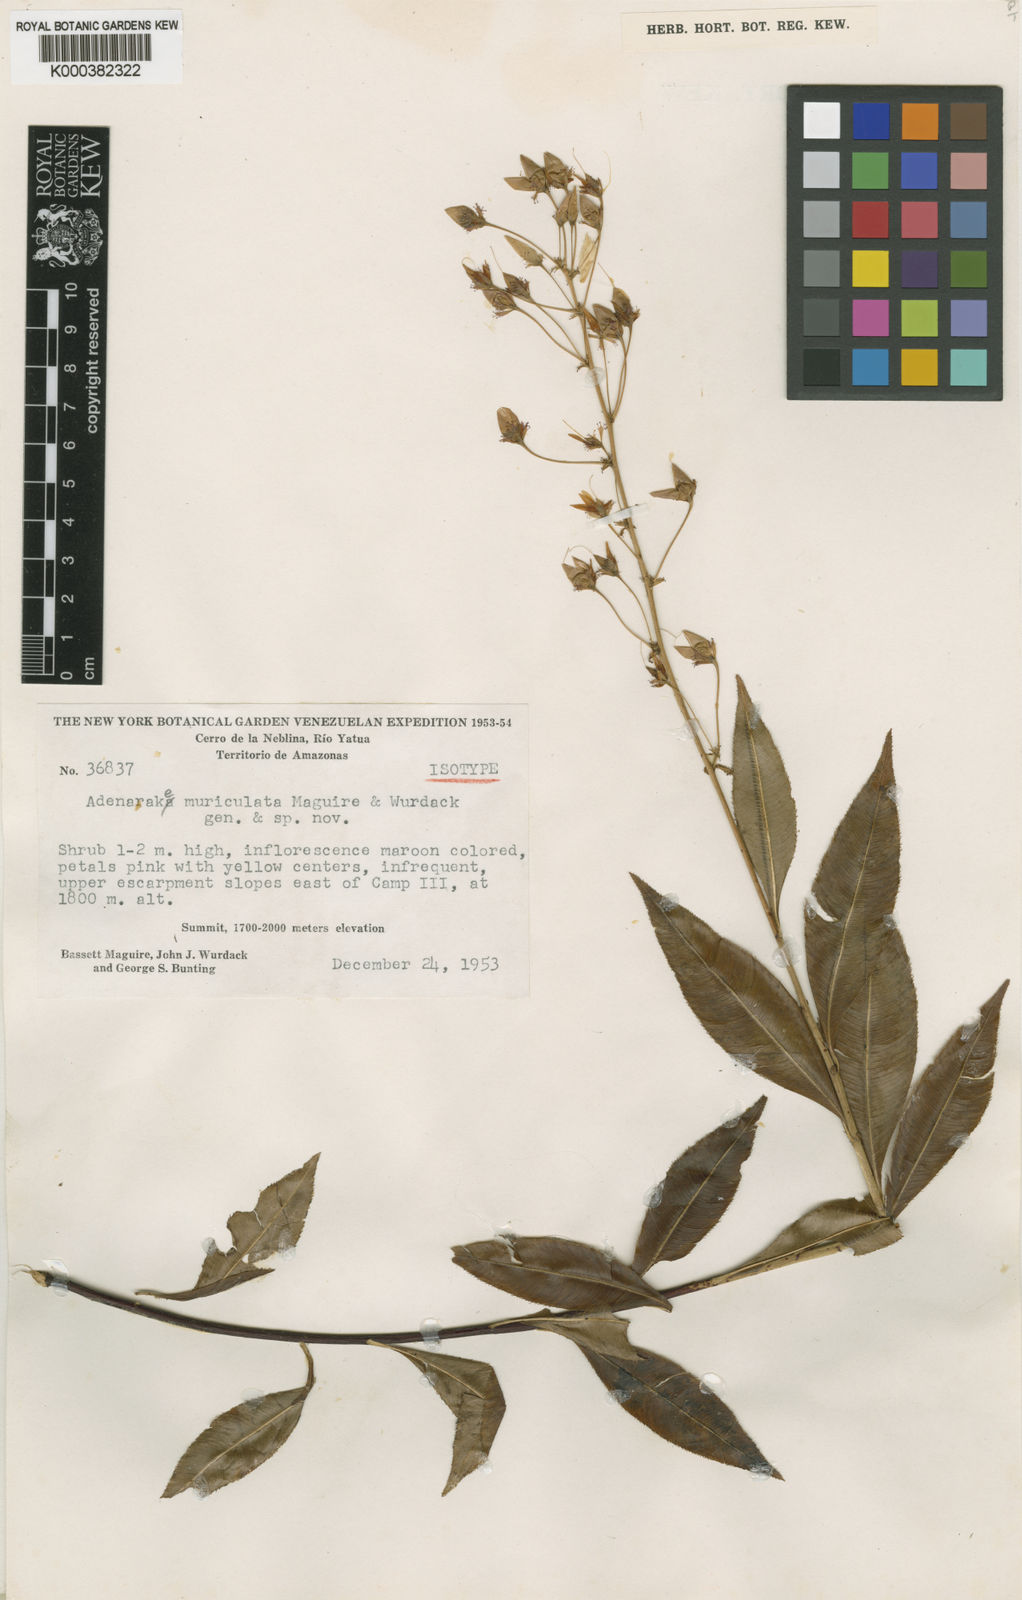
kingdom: Plantae
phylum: Tracheophyta
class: Magnoliopsida
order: Malpighiales
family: Ochnaceae
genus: Sauvagesia
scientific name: Sauvagesia muriculata
